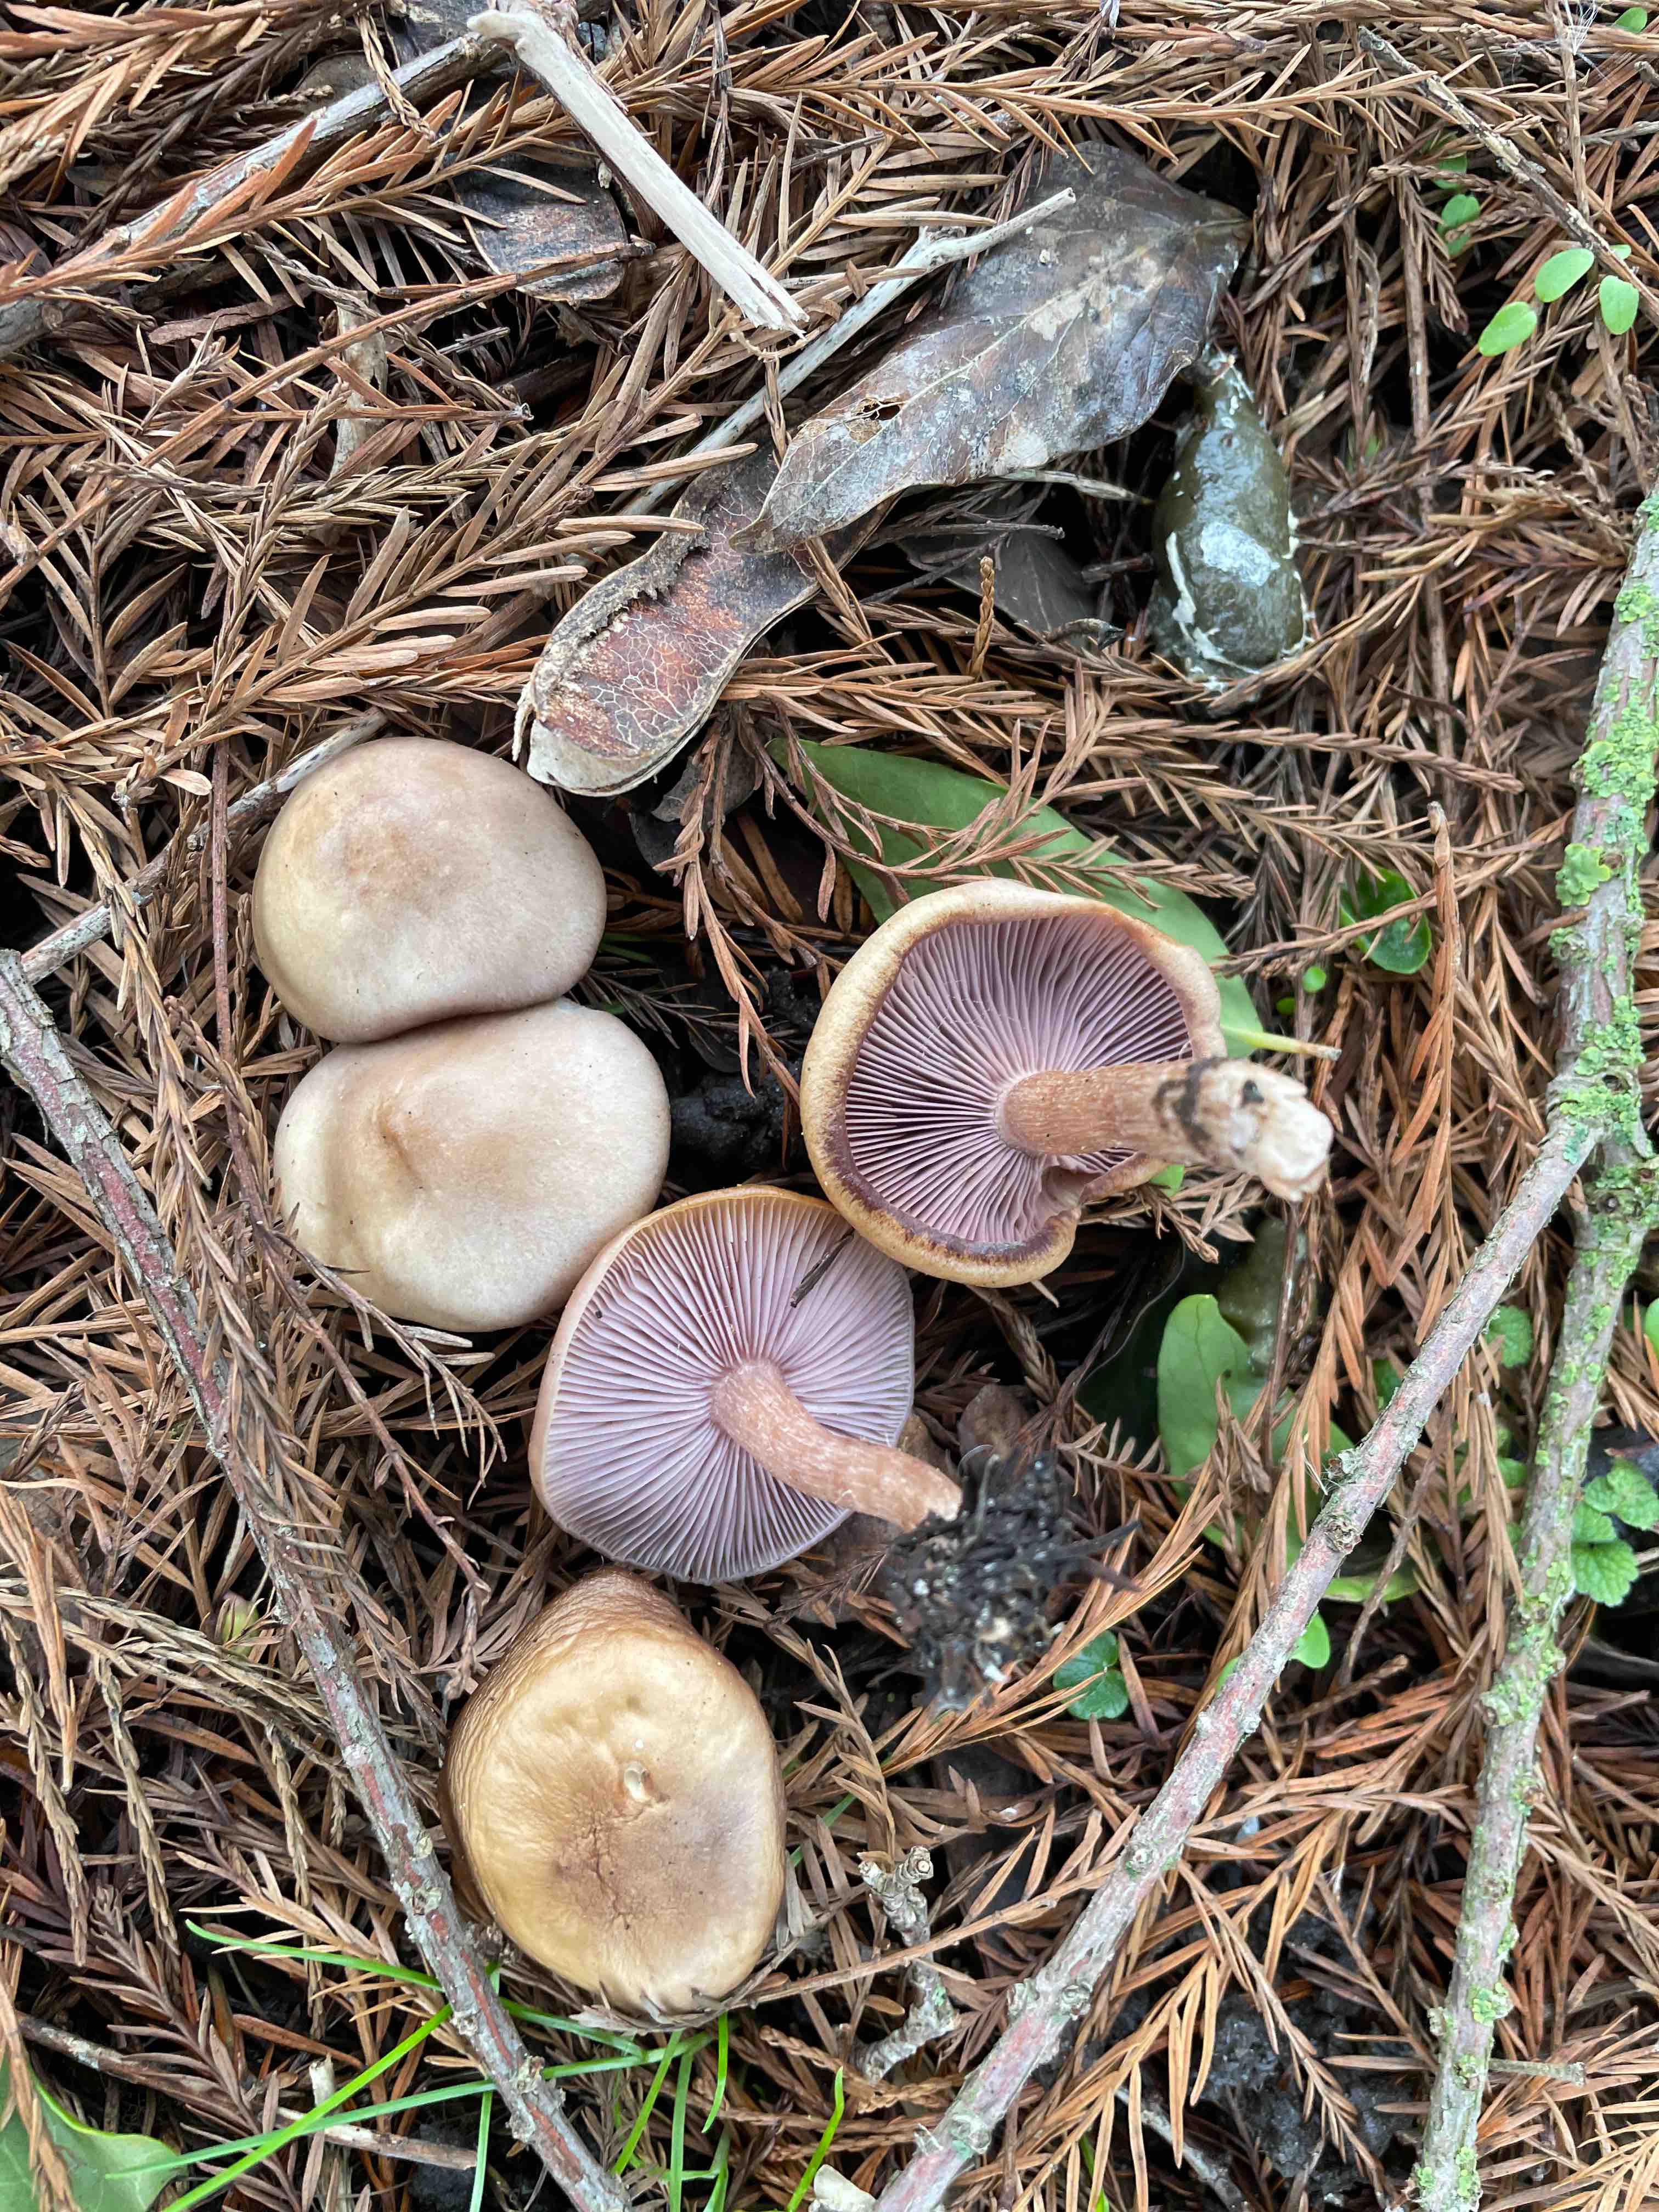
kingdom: Fungi
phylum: Basidiomycota
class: Agaricomycetes
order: Agaricales
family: Tricholomataceae
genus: Lepista
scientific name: Lepista nuda
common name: violet hekseringshat
